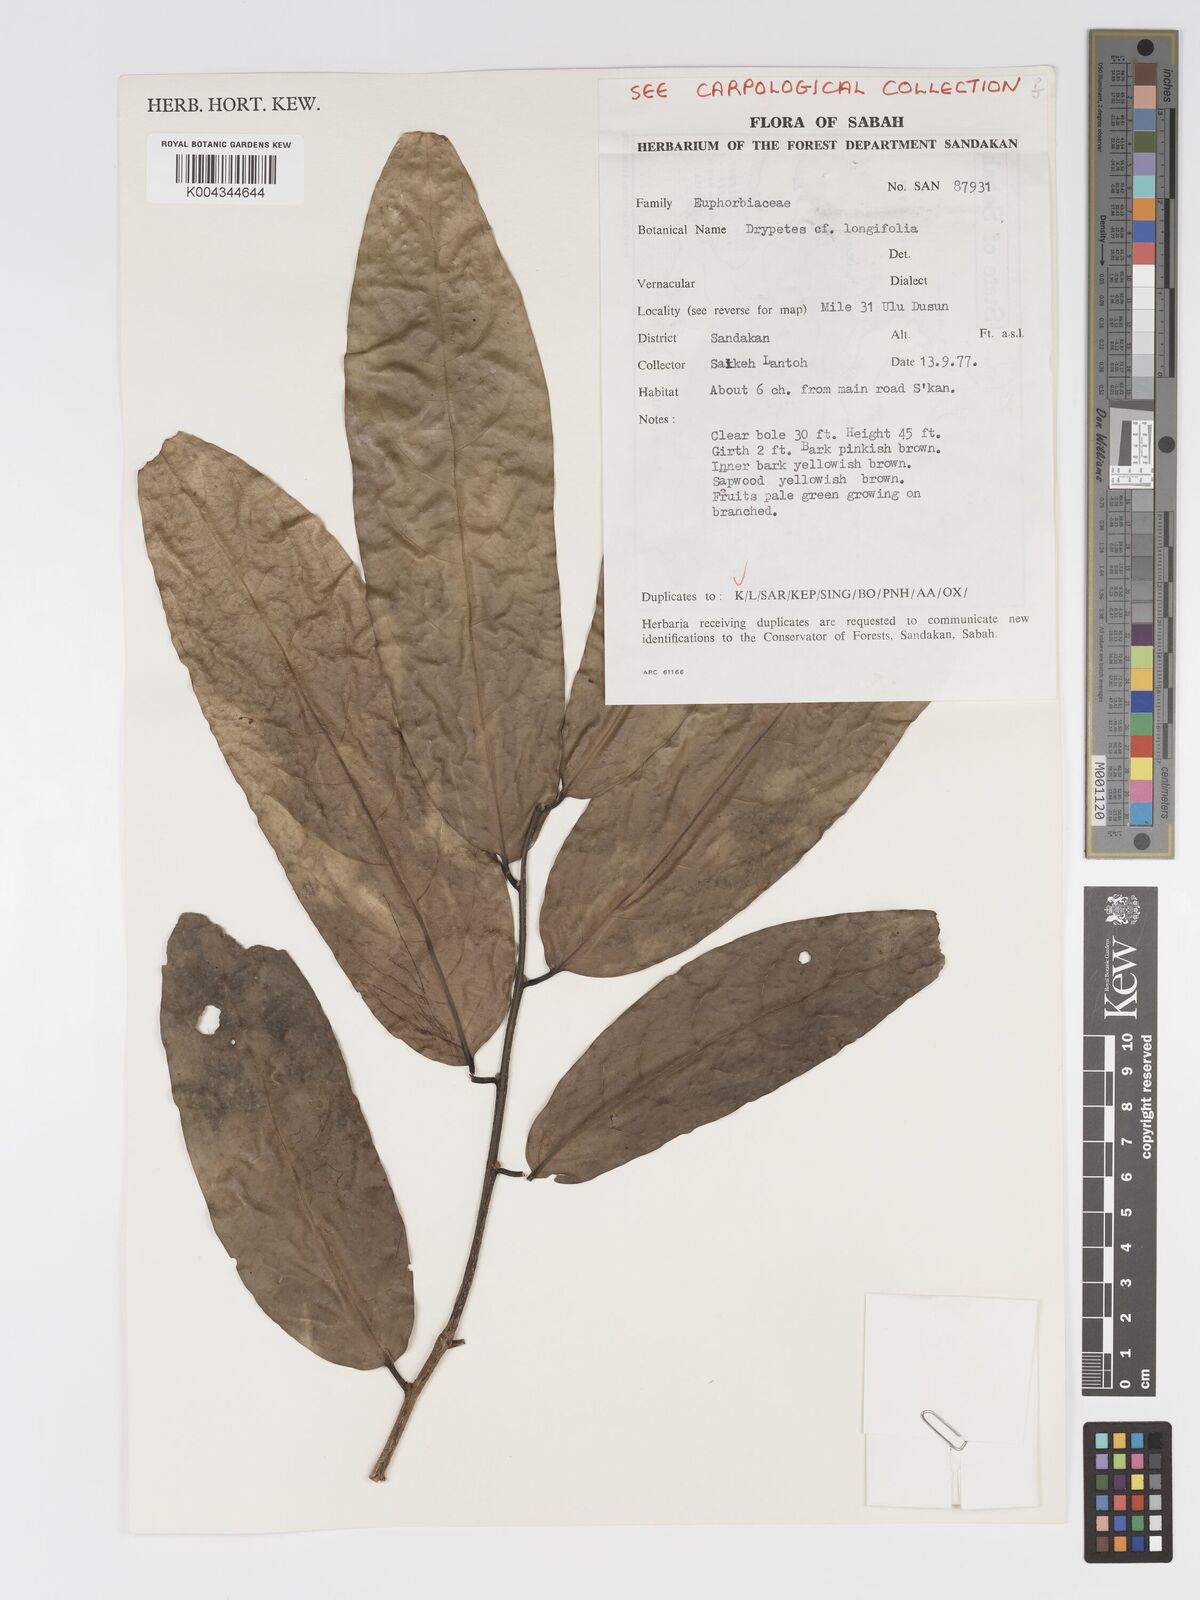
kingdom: Plantae
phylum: Tracheophyta
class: Magnoliopsida
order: Malpighiales
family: Putranjivaceae
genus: Drypetes
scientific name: Drypetes longifolia
